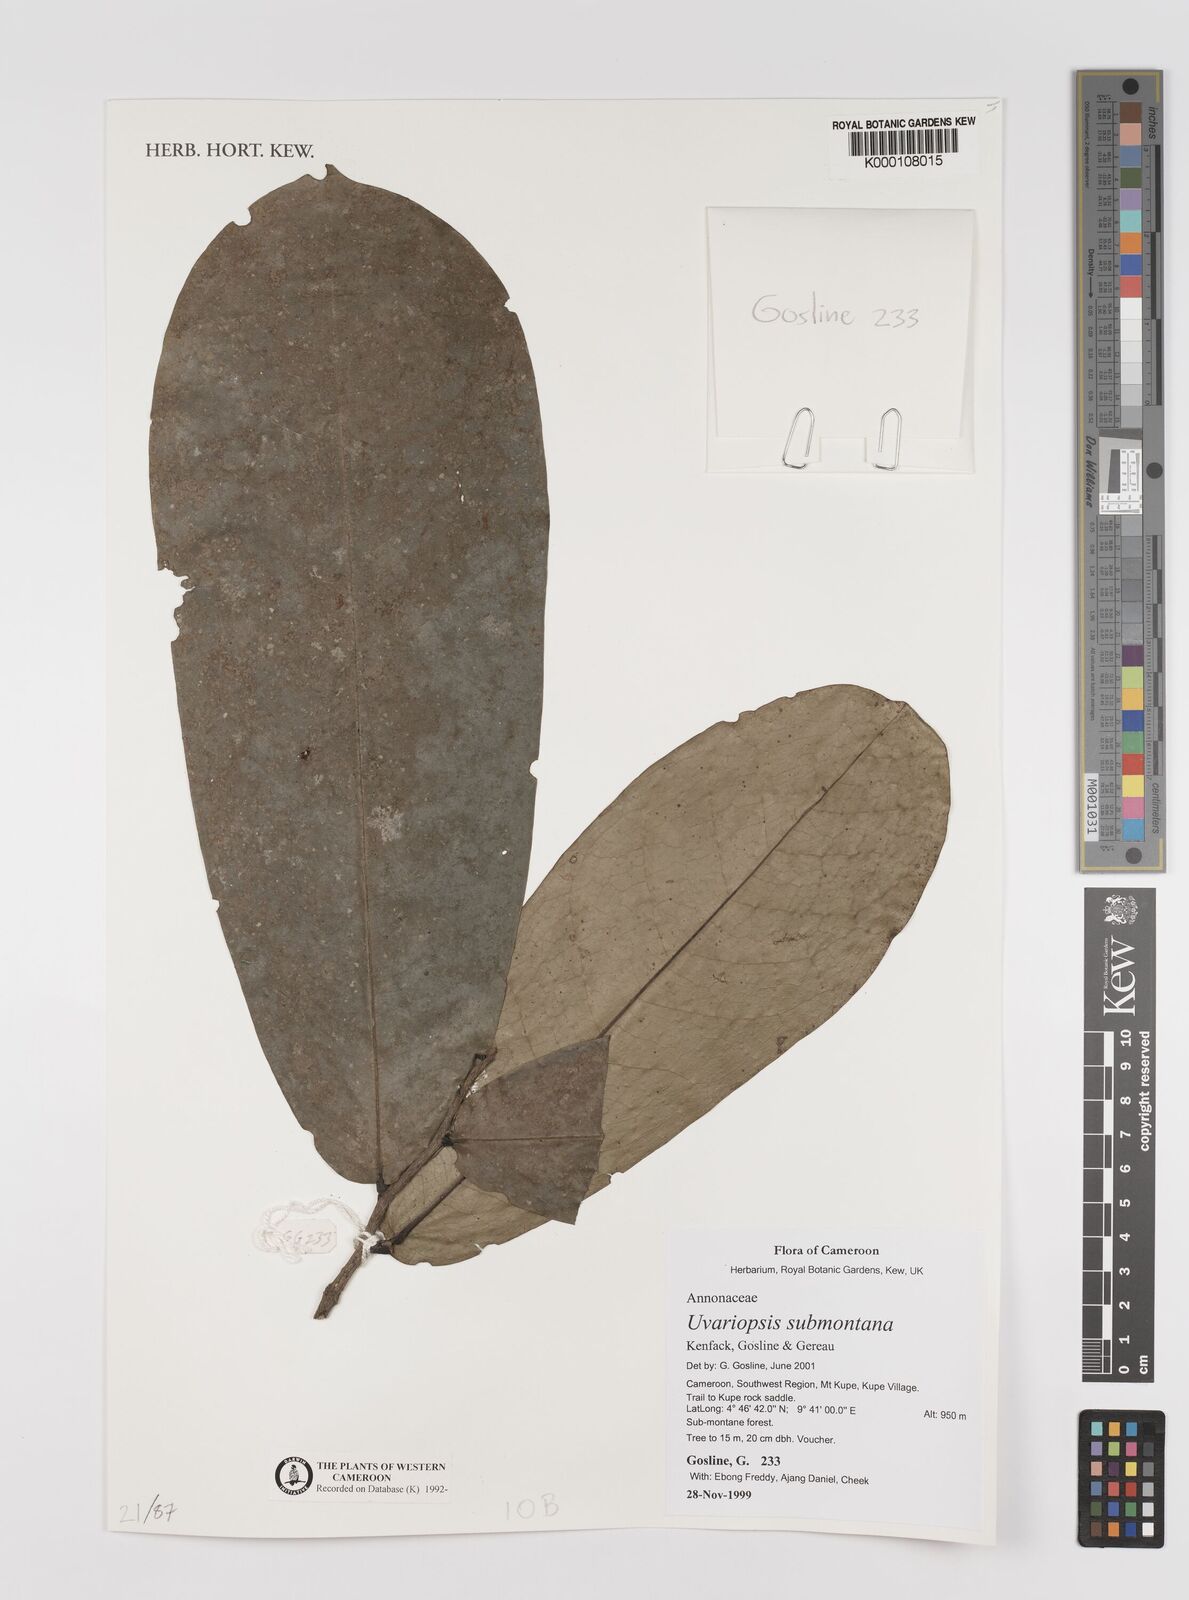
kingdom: Plantae
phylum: Tracheophyta
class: Magnoliopsida
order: Magnoliales
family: Annonaceae
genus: Uvariopsis
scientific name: Uvariopsis submontana
